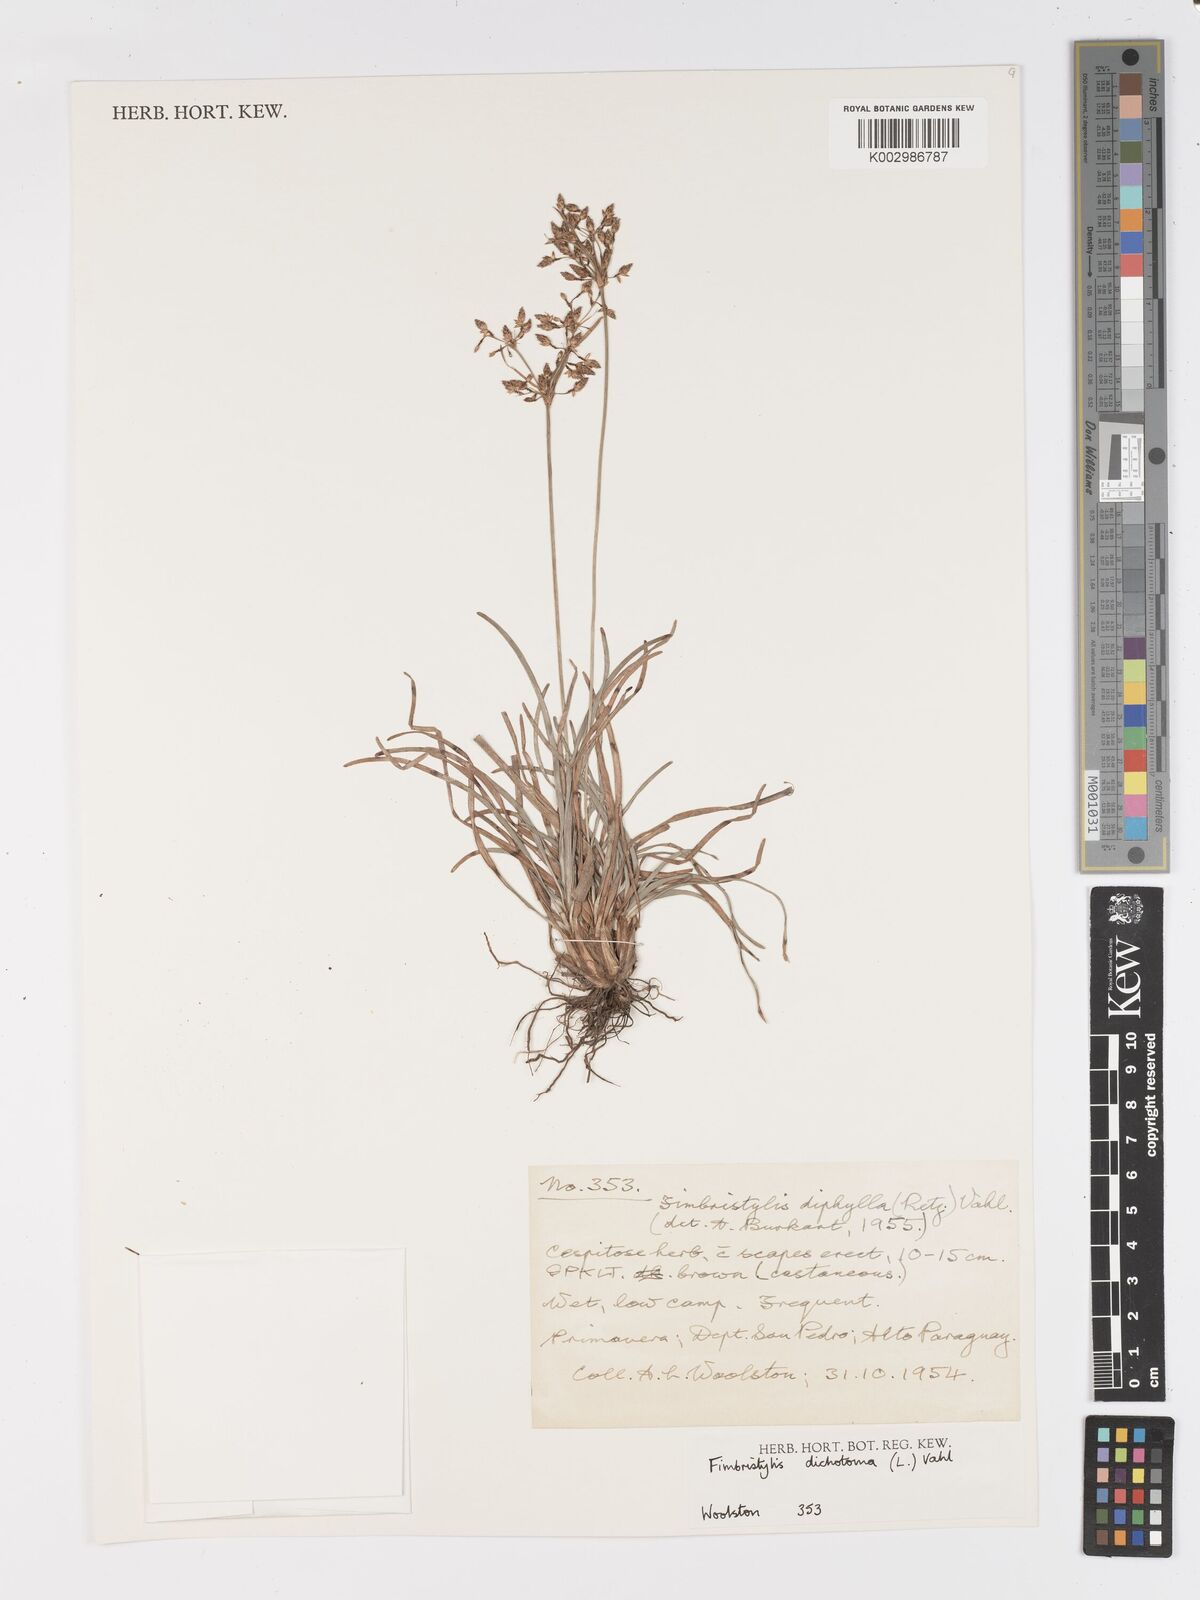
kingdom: Plantae
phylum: Tracheophyta
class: Liliopsida
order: Poales
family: Cyperaceae
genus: Fimbristylis
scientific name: Fimbristylis dichotoma
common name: Forked fimbry
